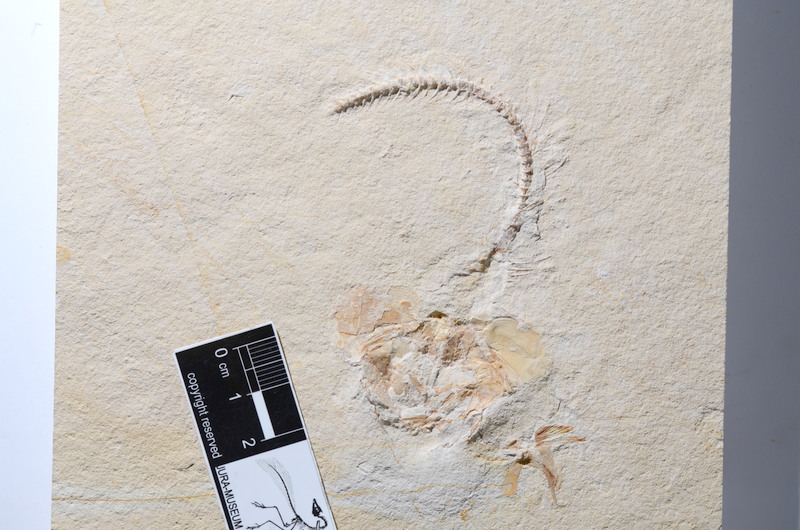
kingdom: Animalia
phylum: Chordata
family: Ascalaboidae
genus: Tharsis
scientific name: Tharsis dubius
